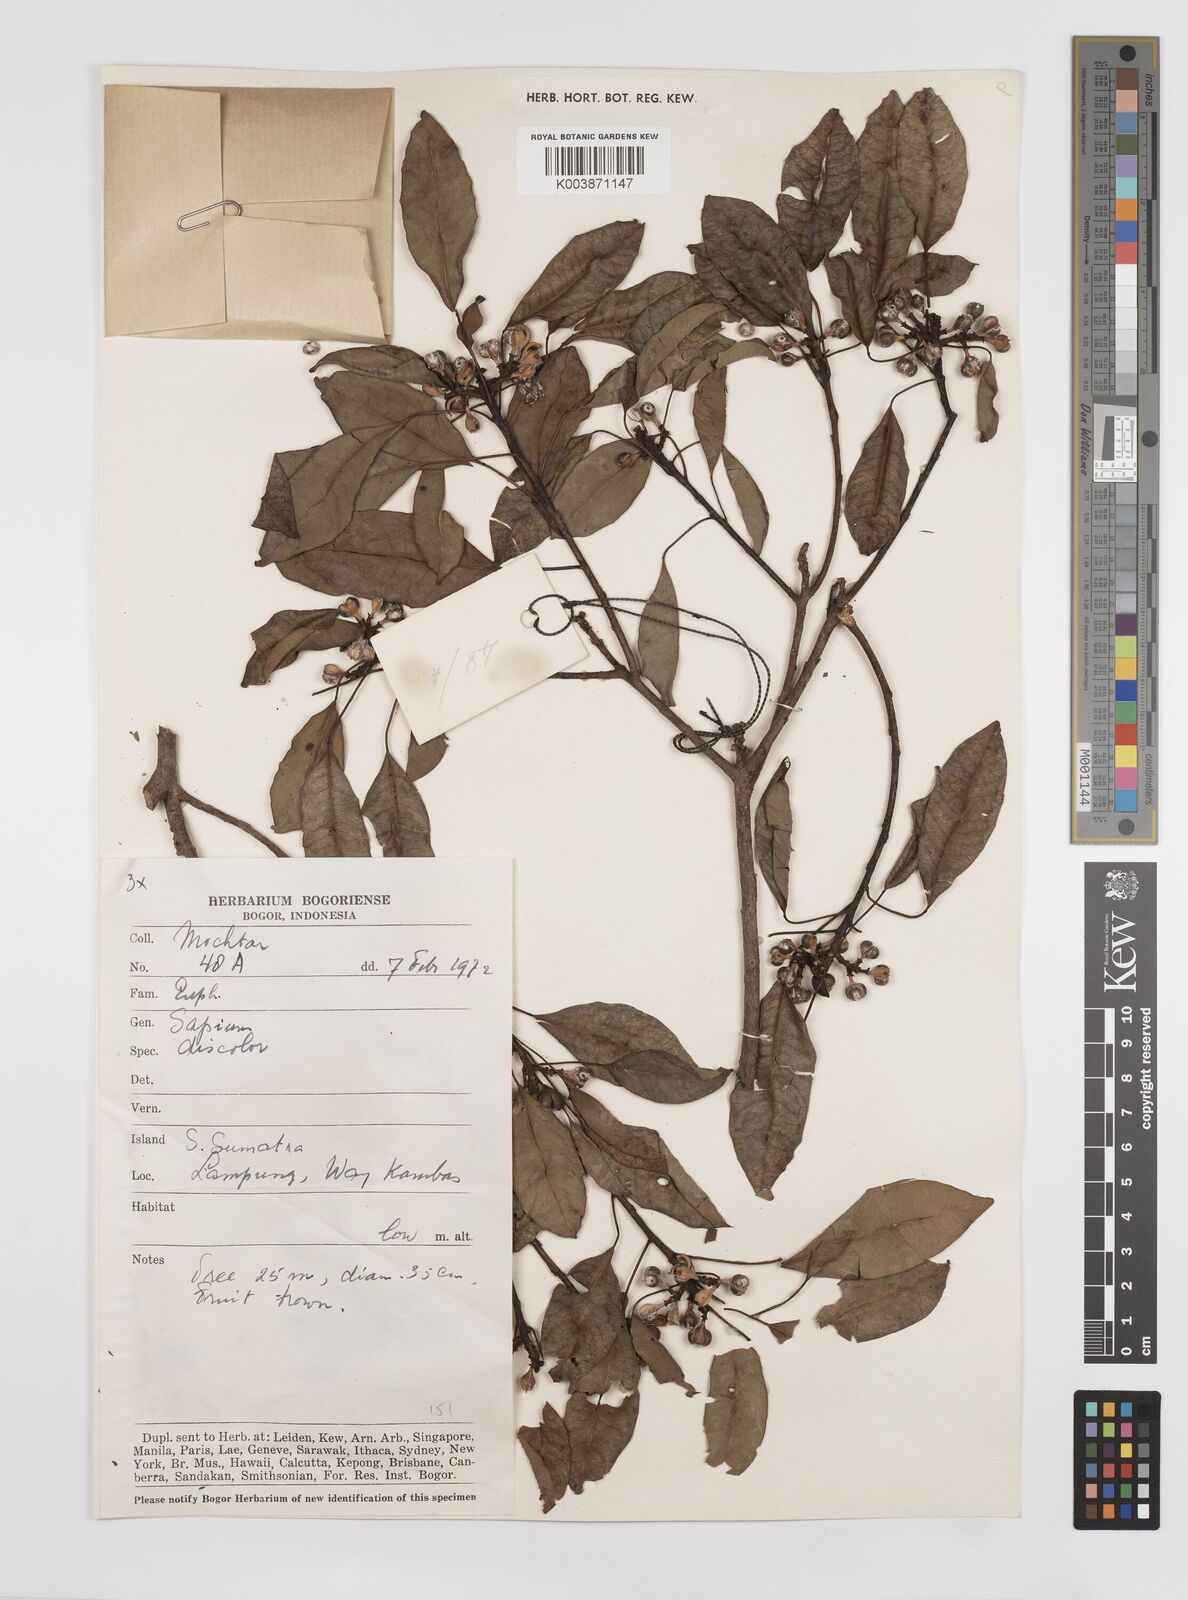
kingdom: Plantae
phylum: Tracheophyta
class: Magnoliopsida
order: Malpighiales
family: Euphorbiaceae
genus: Triadica
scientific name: Triadica cochinchinensis
